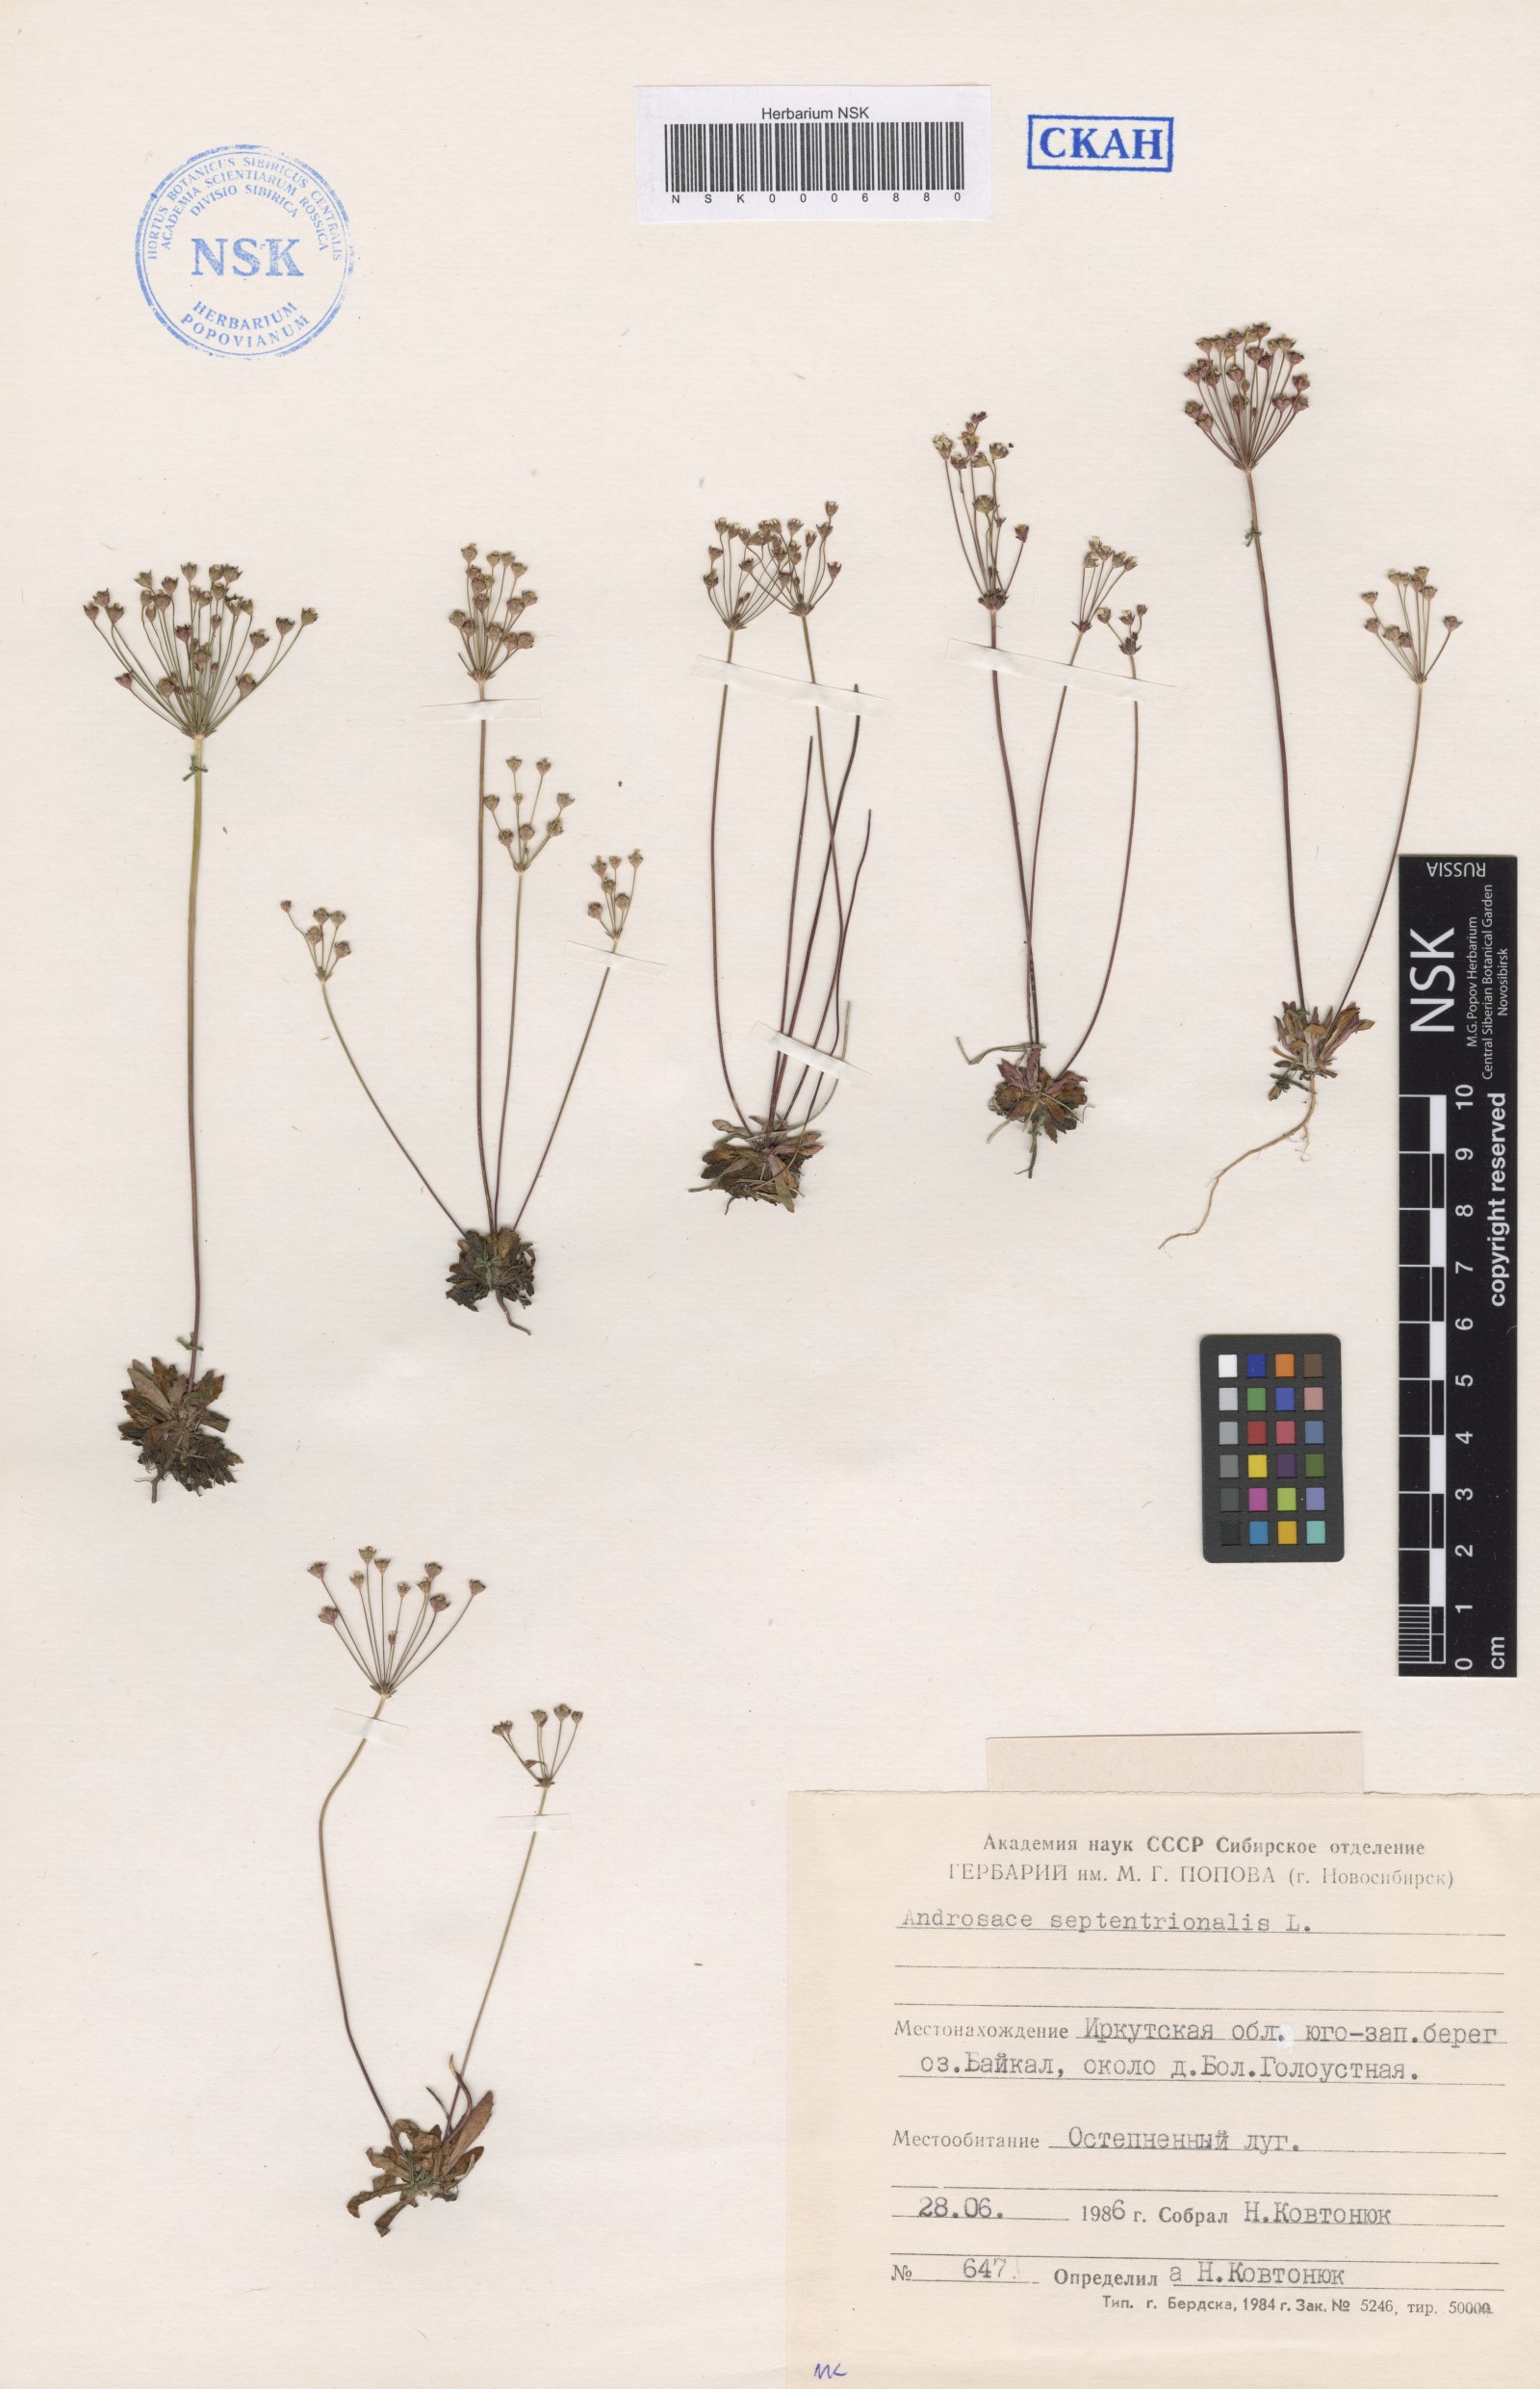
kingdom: Plantae
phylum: Tracheophyta
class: Magnoliopsida
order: Ericales
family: Primulaceae
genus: Androsace
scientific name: Androsace septentrionalis
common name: Hairy northern fairy-candelabra
